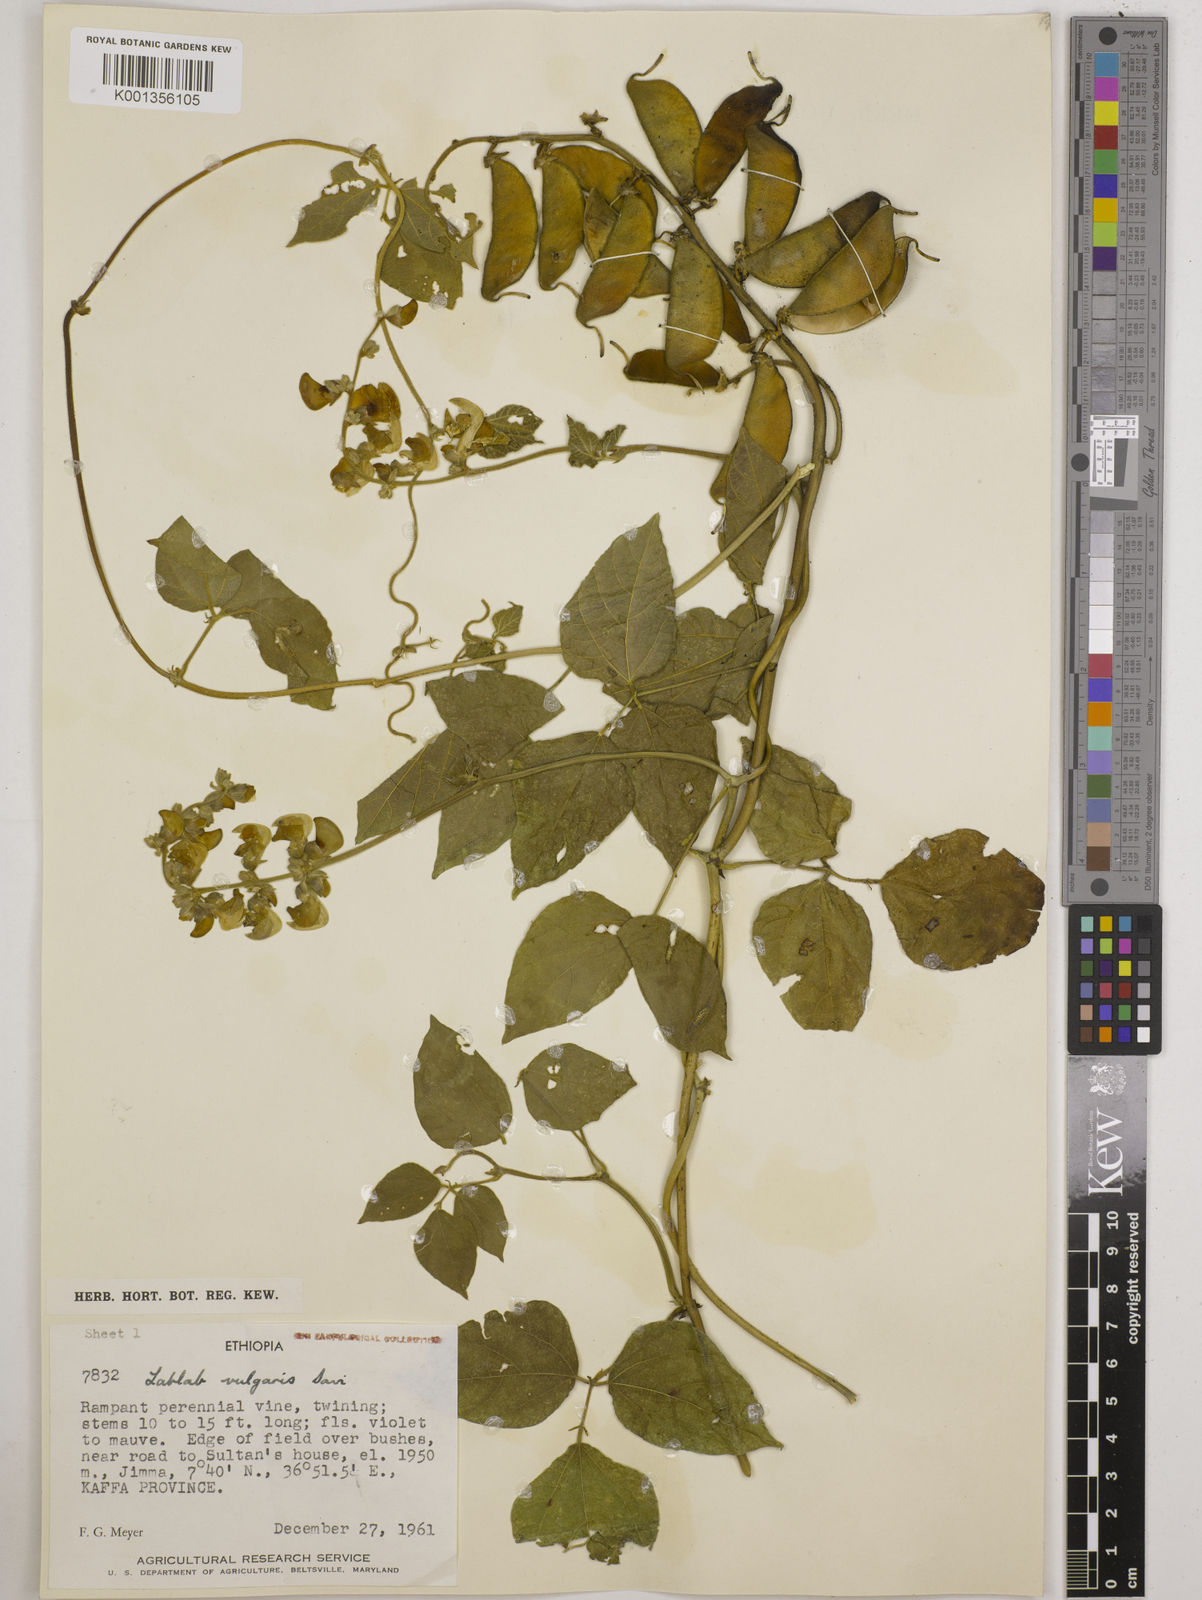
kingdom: Plantae
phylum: Tracheophyta
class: Magnoliopsida
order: Fabales
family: Fabaceae
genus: Lablab
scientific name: Lablab purpureus
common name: Lablab-bean
